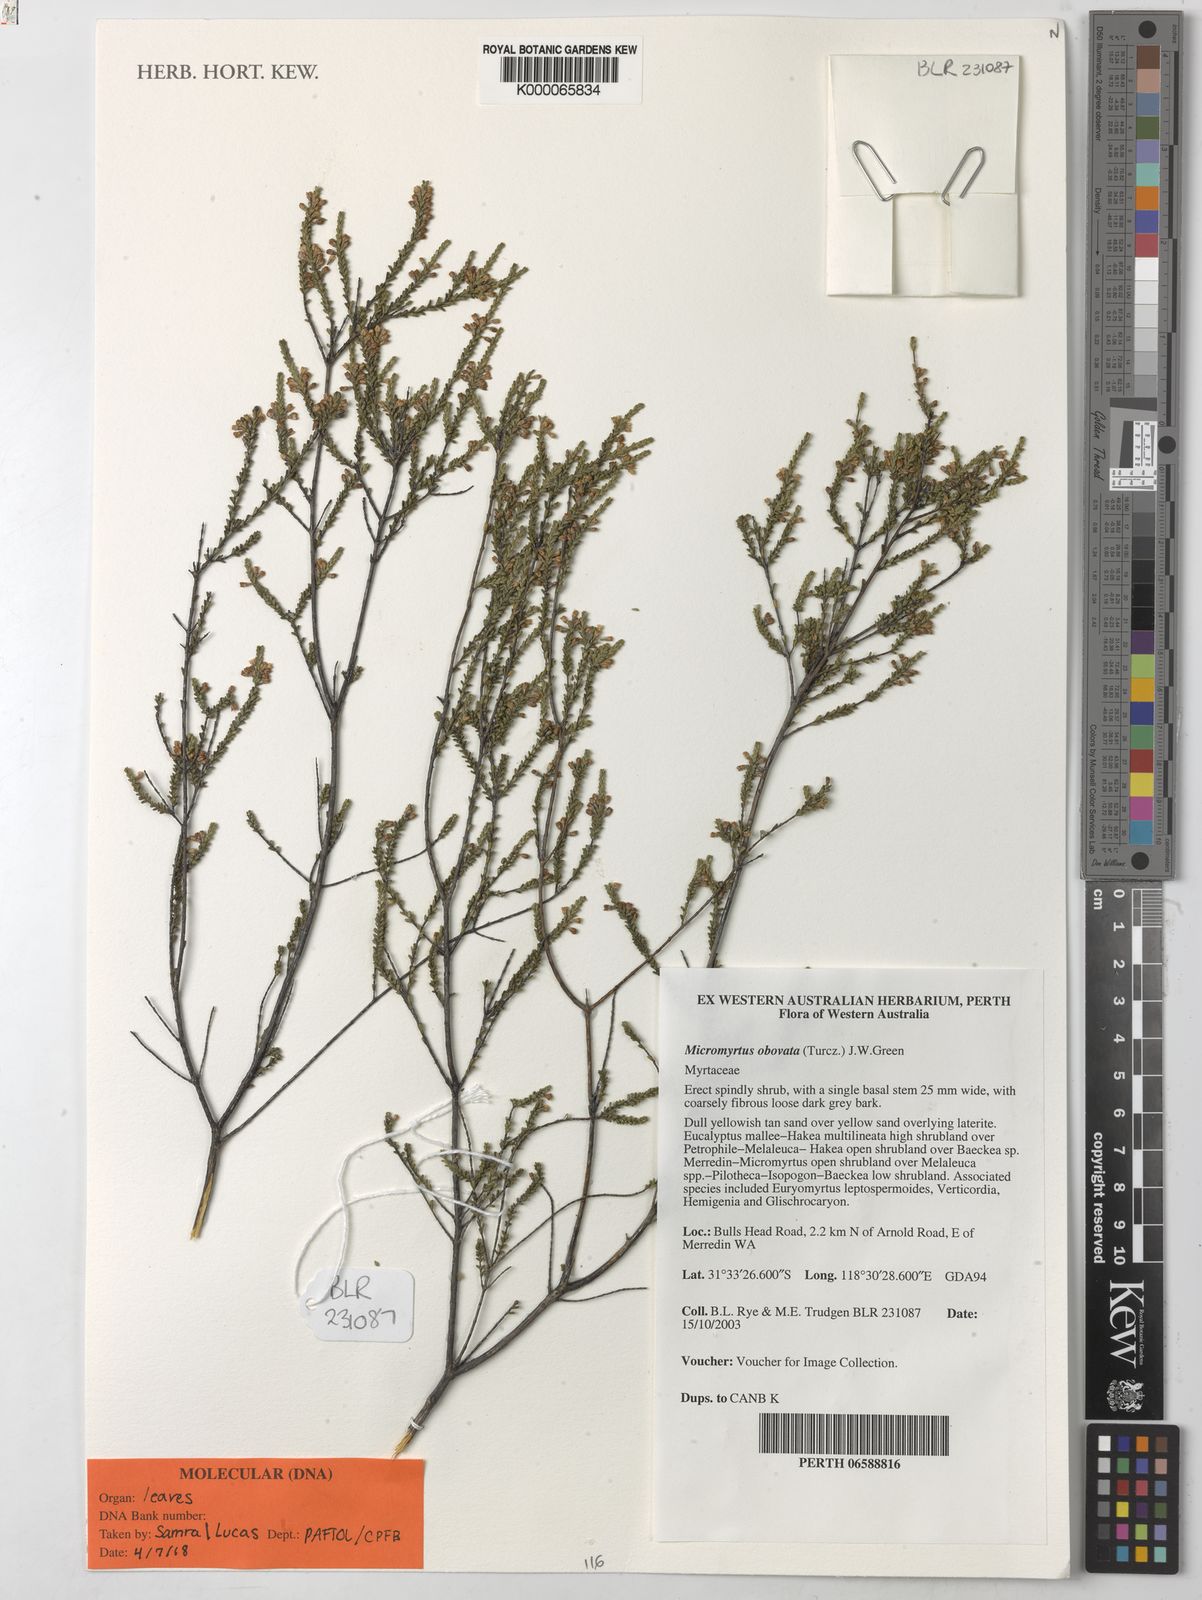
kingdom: Plantae
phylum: Tracheophyta
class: Magnoliopsida
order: Myrtales
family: Myrtaceae
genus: Micromyrtus
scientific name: Micromyrtus obovata
